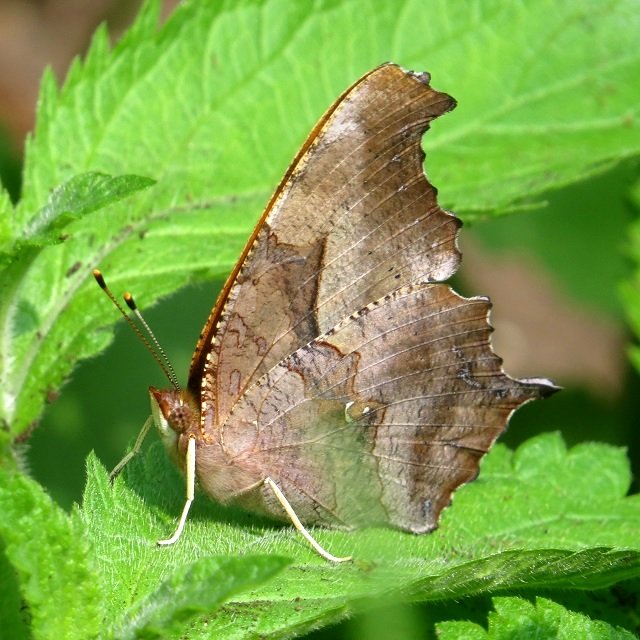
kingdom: Animalia
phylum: Arthropoda
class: Insecta
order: Lepidoptera
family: Nymphalidae
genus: Polygonia
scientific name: Polygonia interrogationis
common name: Question Mark
